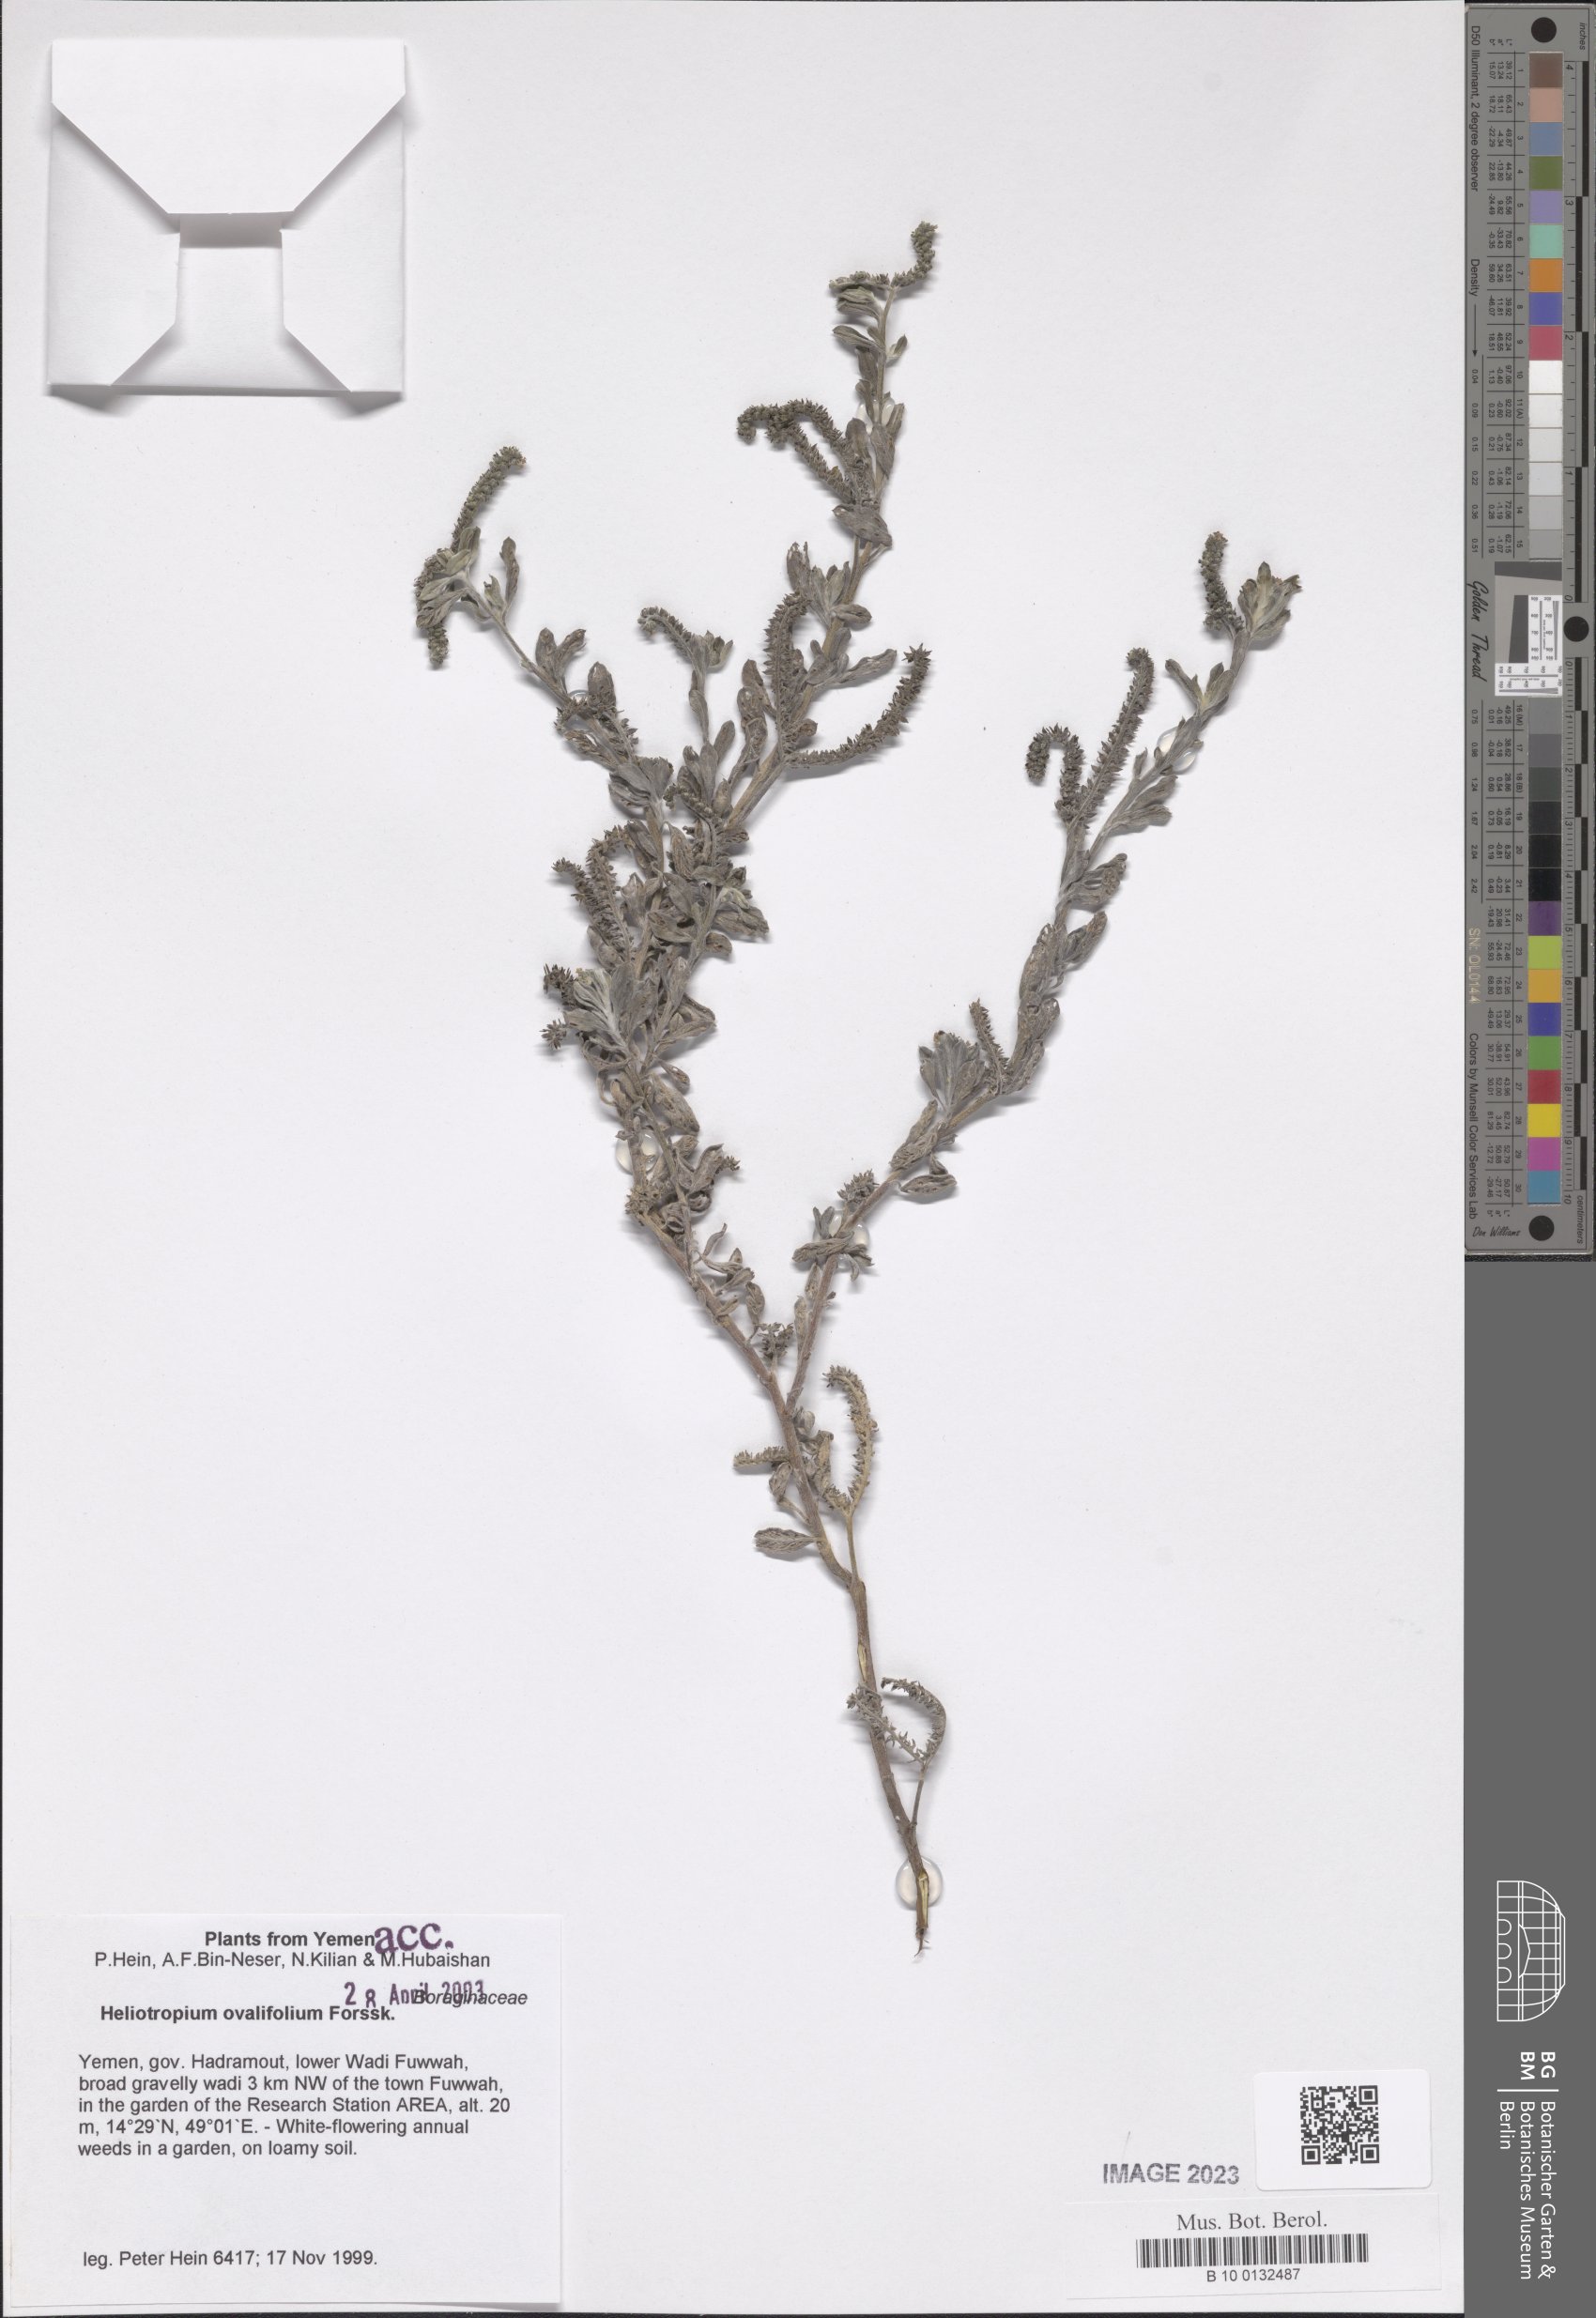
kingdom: Plantae
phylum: Tracheophyta
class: Magnoliopsida
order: Boraginales
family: Heliotropiaceae
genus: Euploca
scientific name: Euploca ovalifolia
